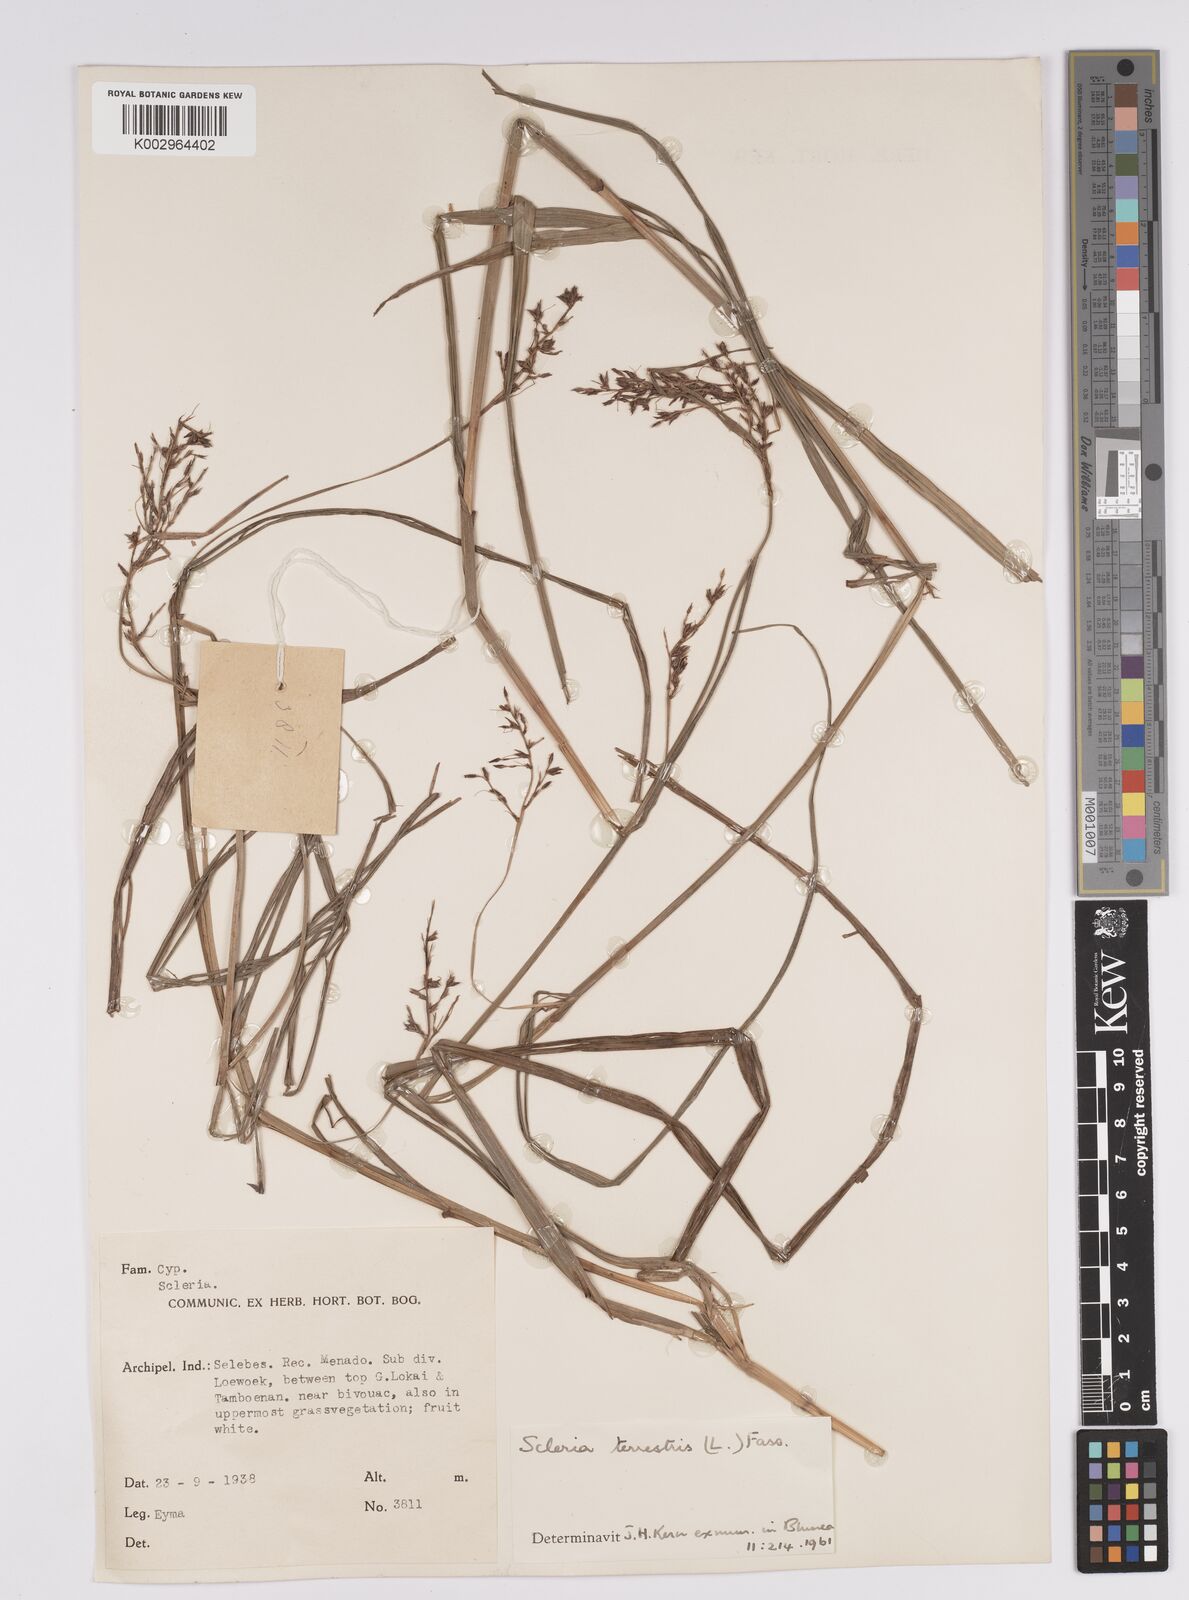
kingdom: Plantae
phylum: Tracheophyta
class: Liliopsida
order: Poales
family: Cyperaceae
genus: Scleria
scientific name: Scleria terrestris
